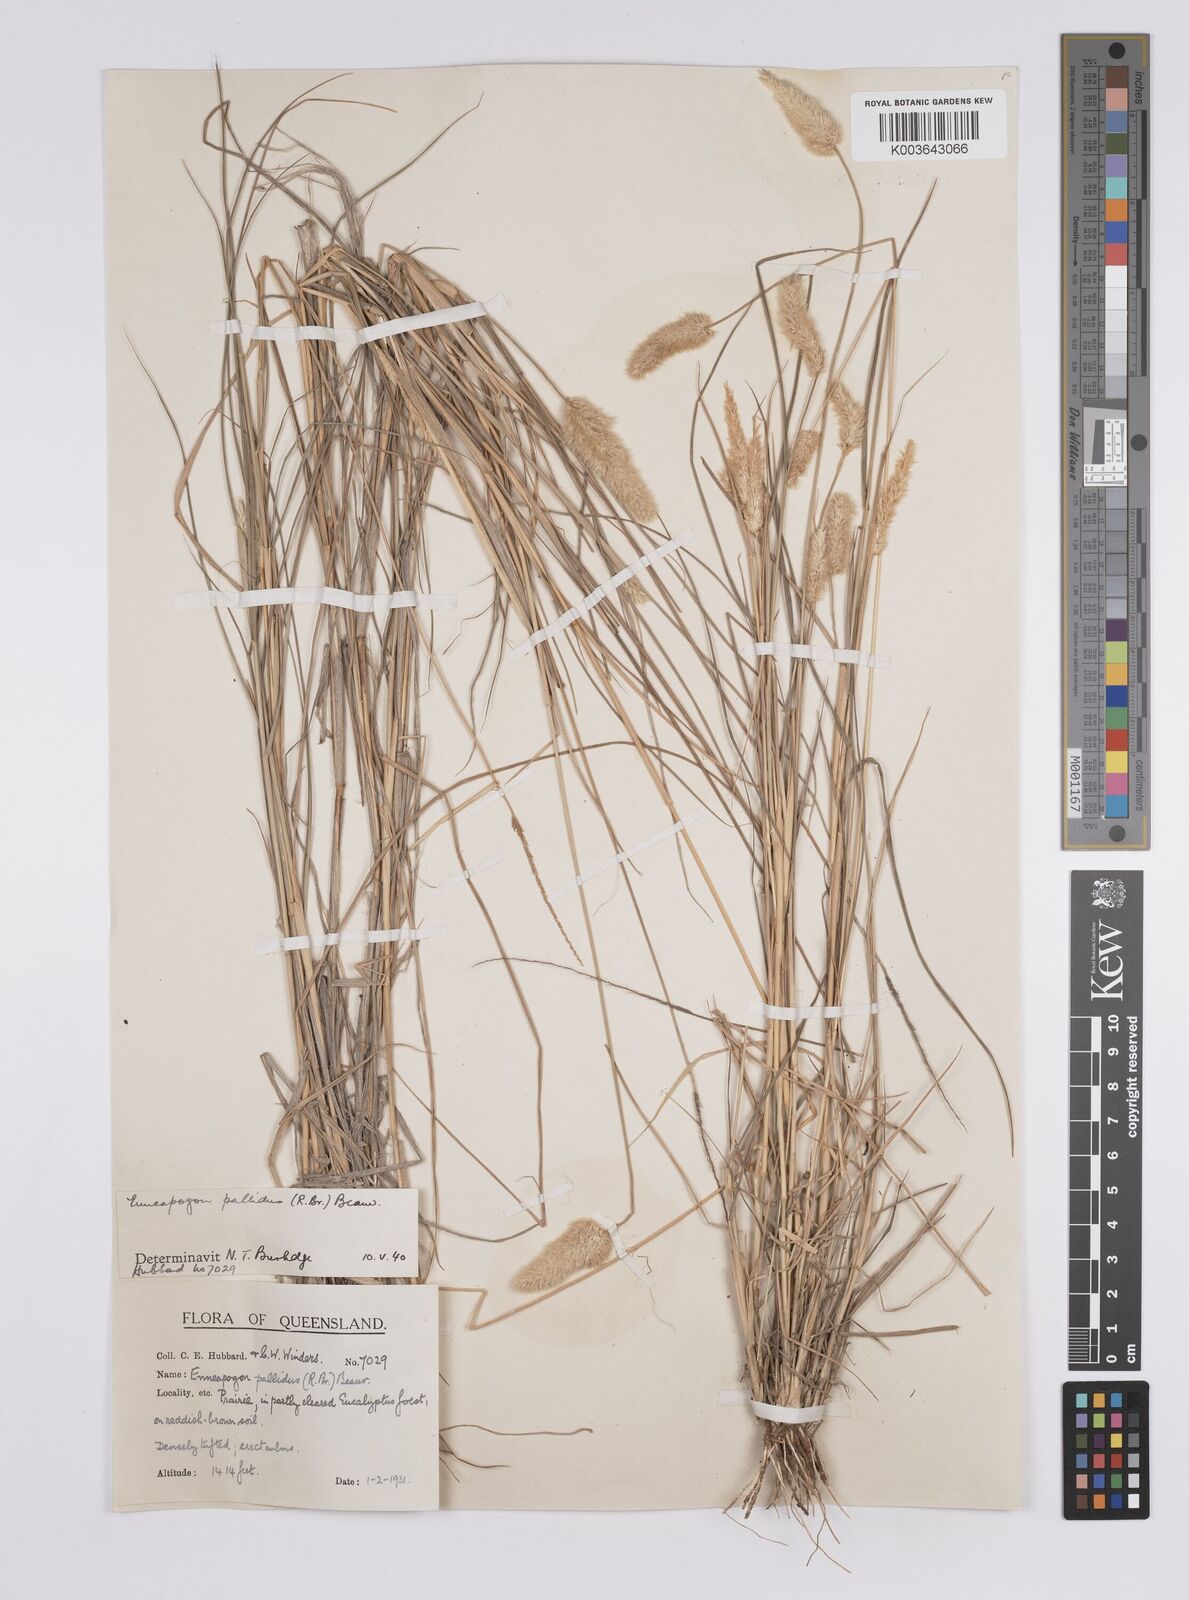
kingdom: Plantae
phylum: Tracheophyta
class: Liliopsida
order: Poales
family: Poaceae
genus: Enneapogon
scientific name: Enneapogon pallidus
